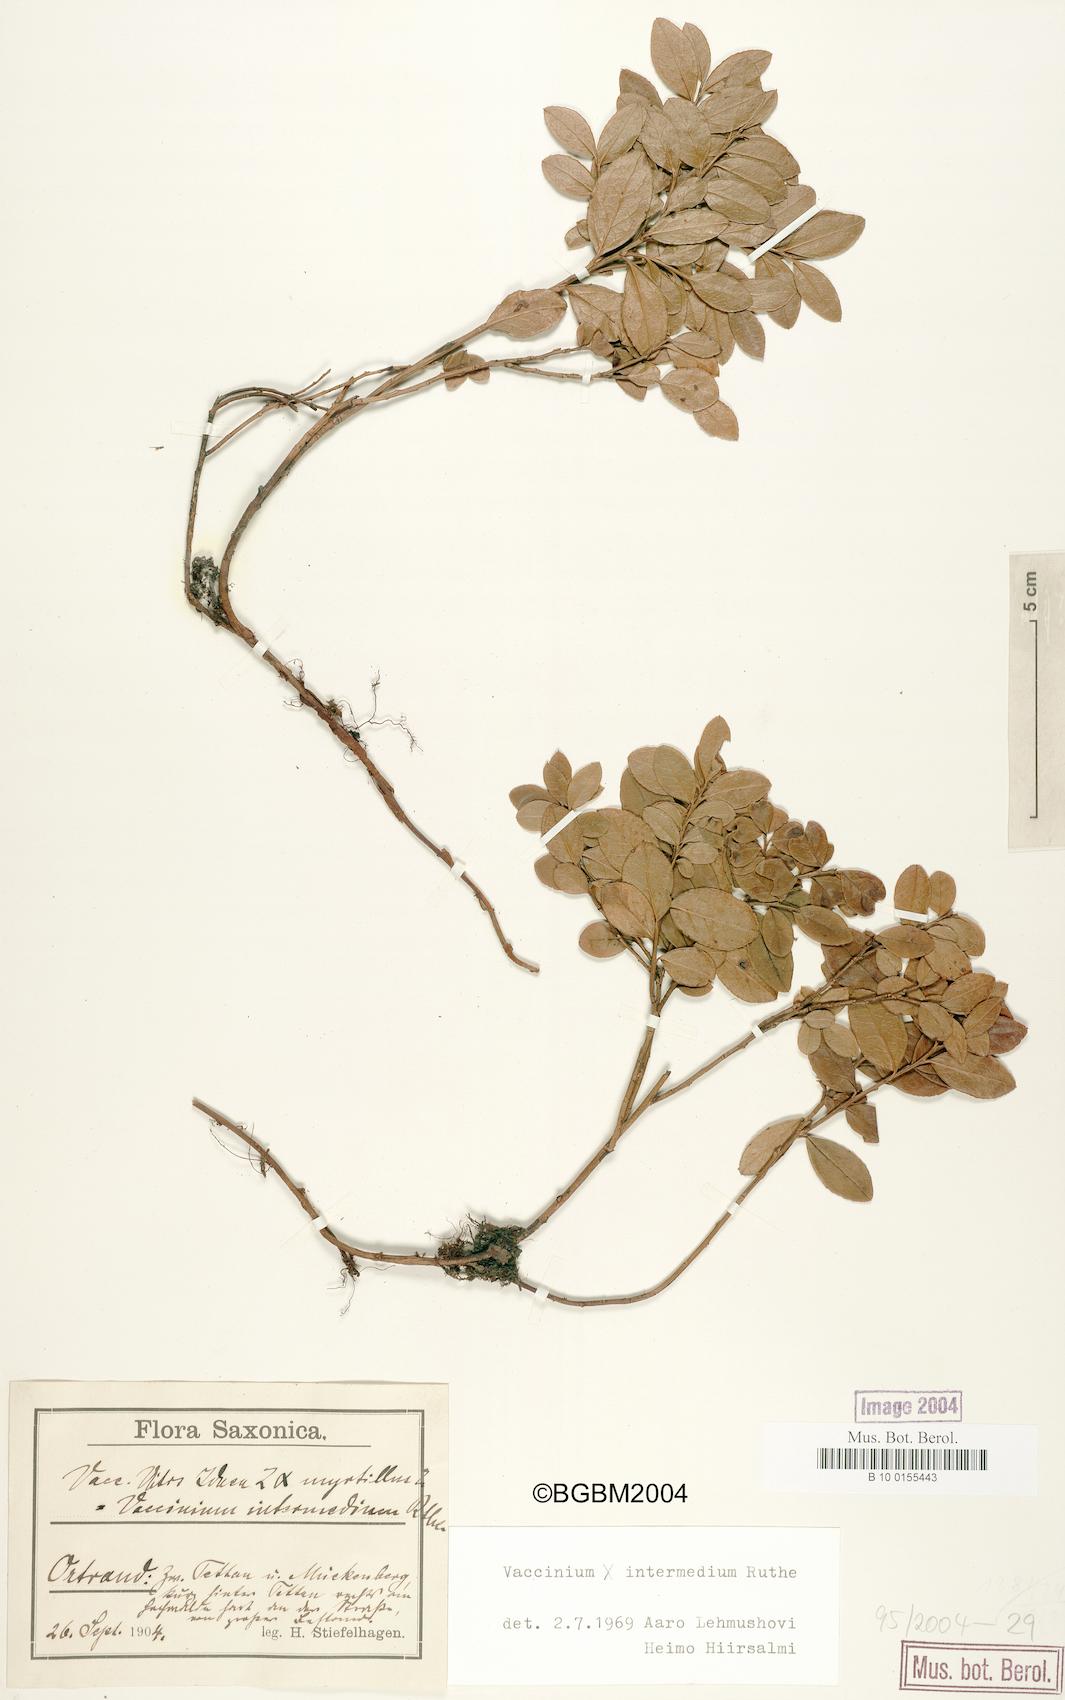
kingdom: Plantae
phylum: Tracheophyta
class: Magnoliopsida
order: Ericales
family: Ericaceae
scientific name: Ericaceae
